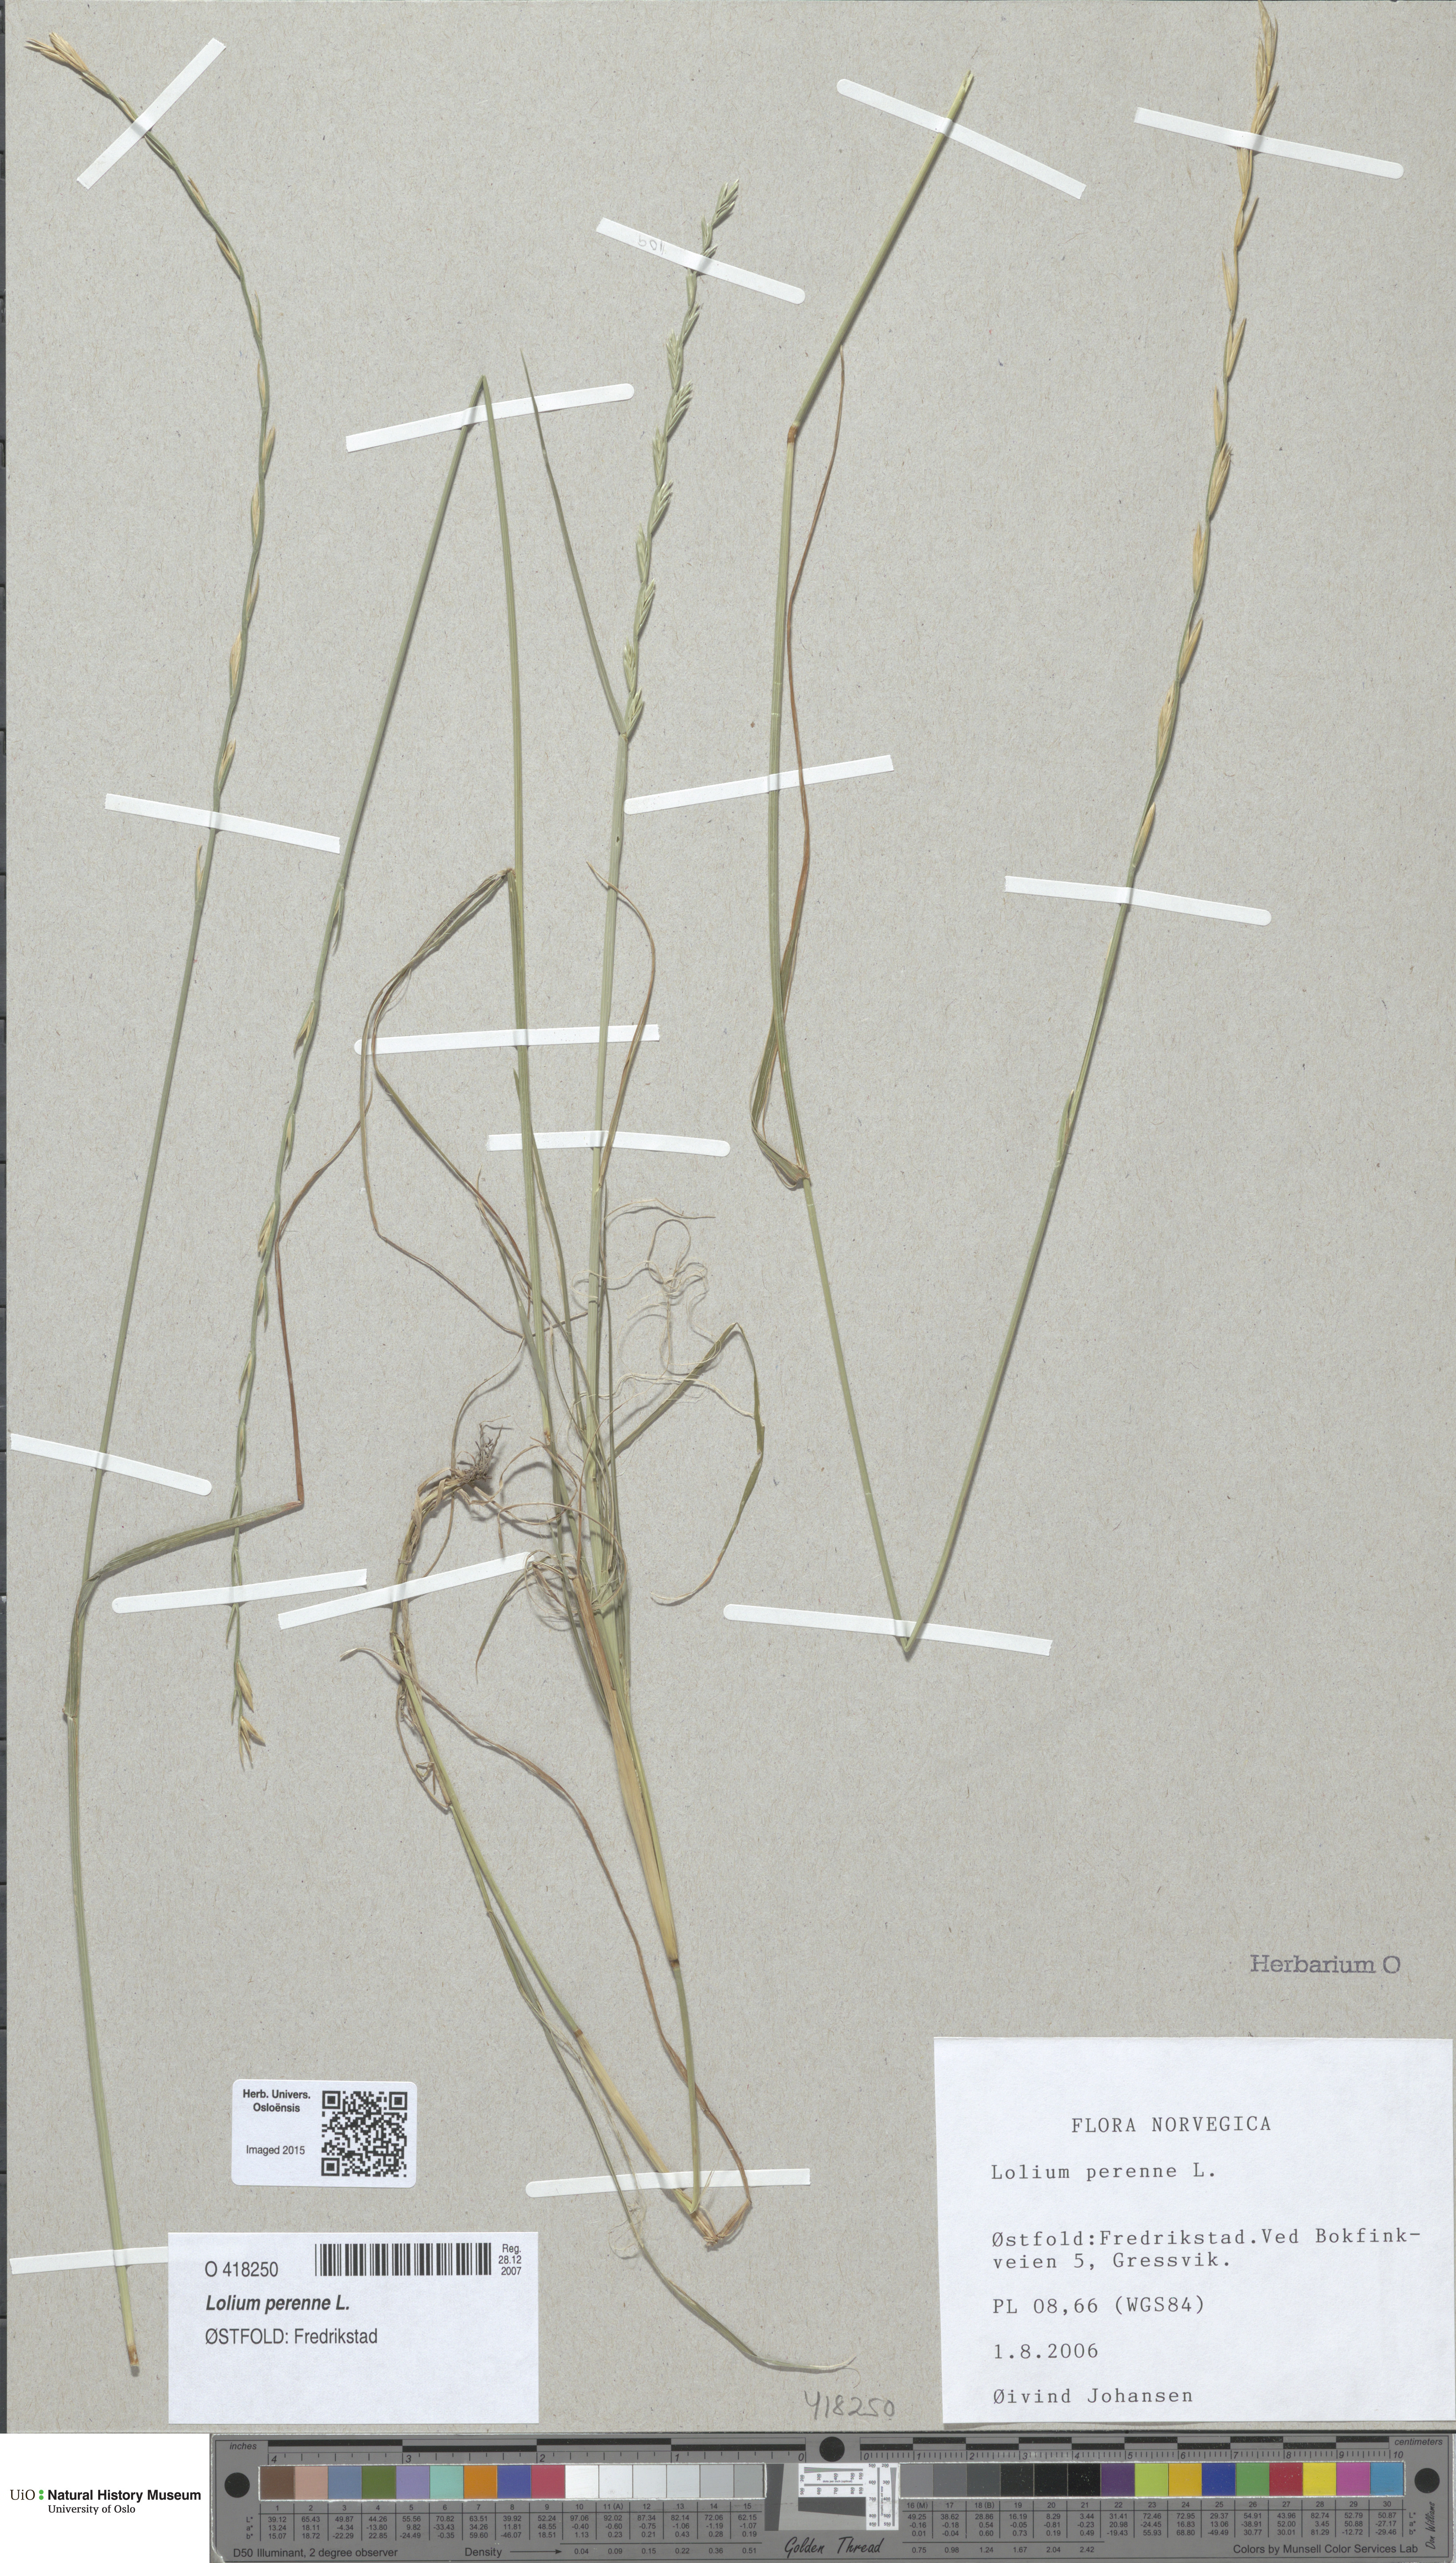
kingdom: Plantae
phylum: Tracheophyta
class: Liliopsida
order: Poales
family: Poaceae
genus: Lolium
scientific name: Lolium perenne
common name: Perennial ryegrass
